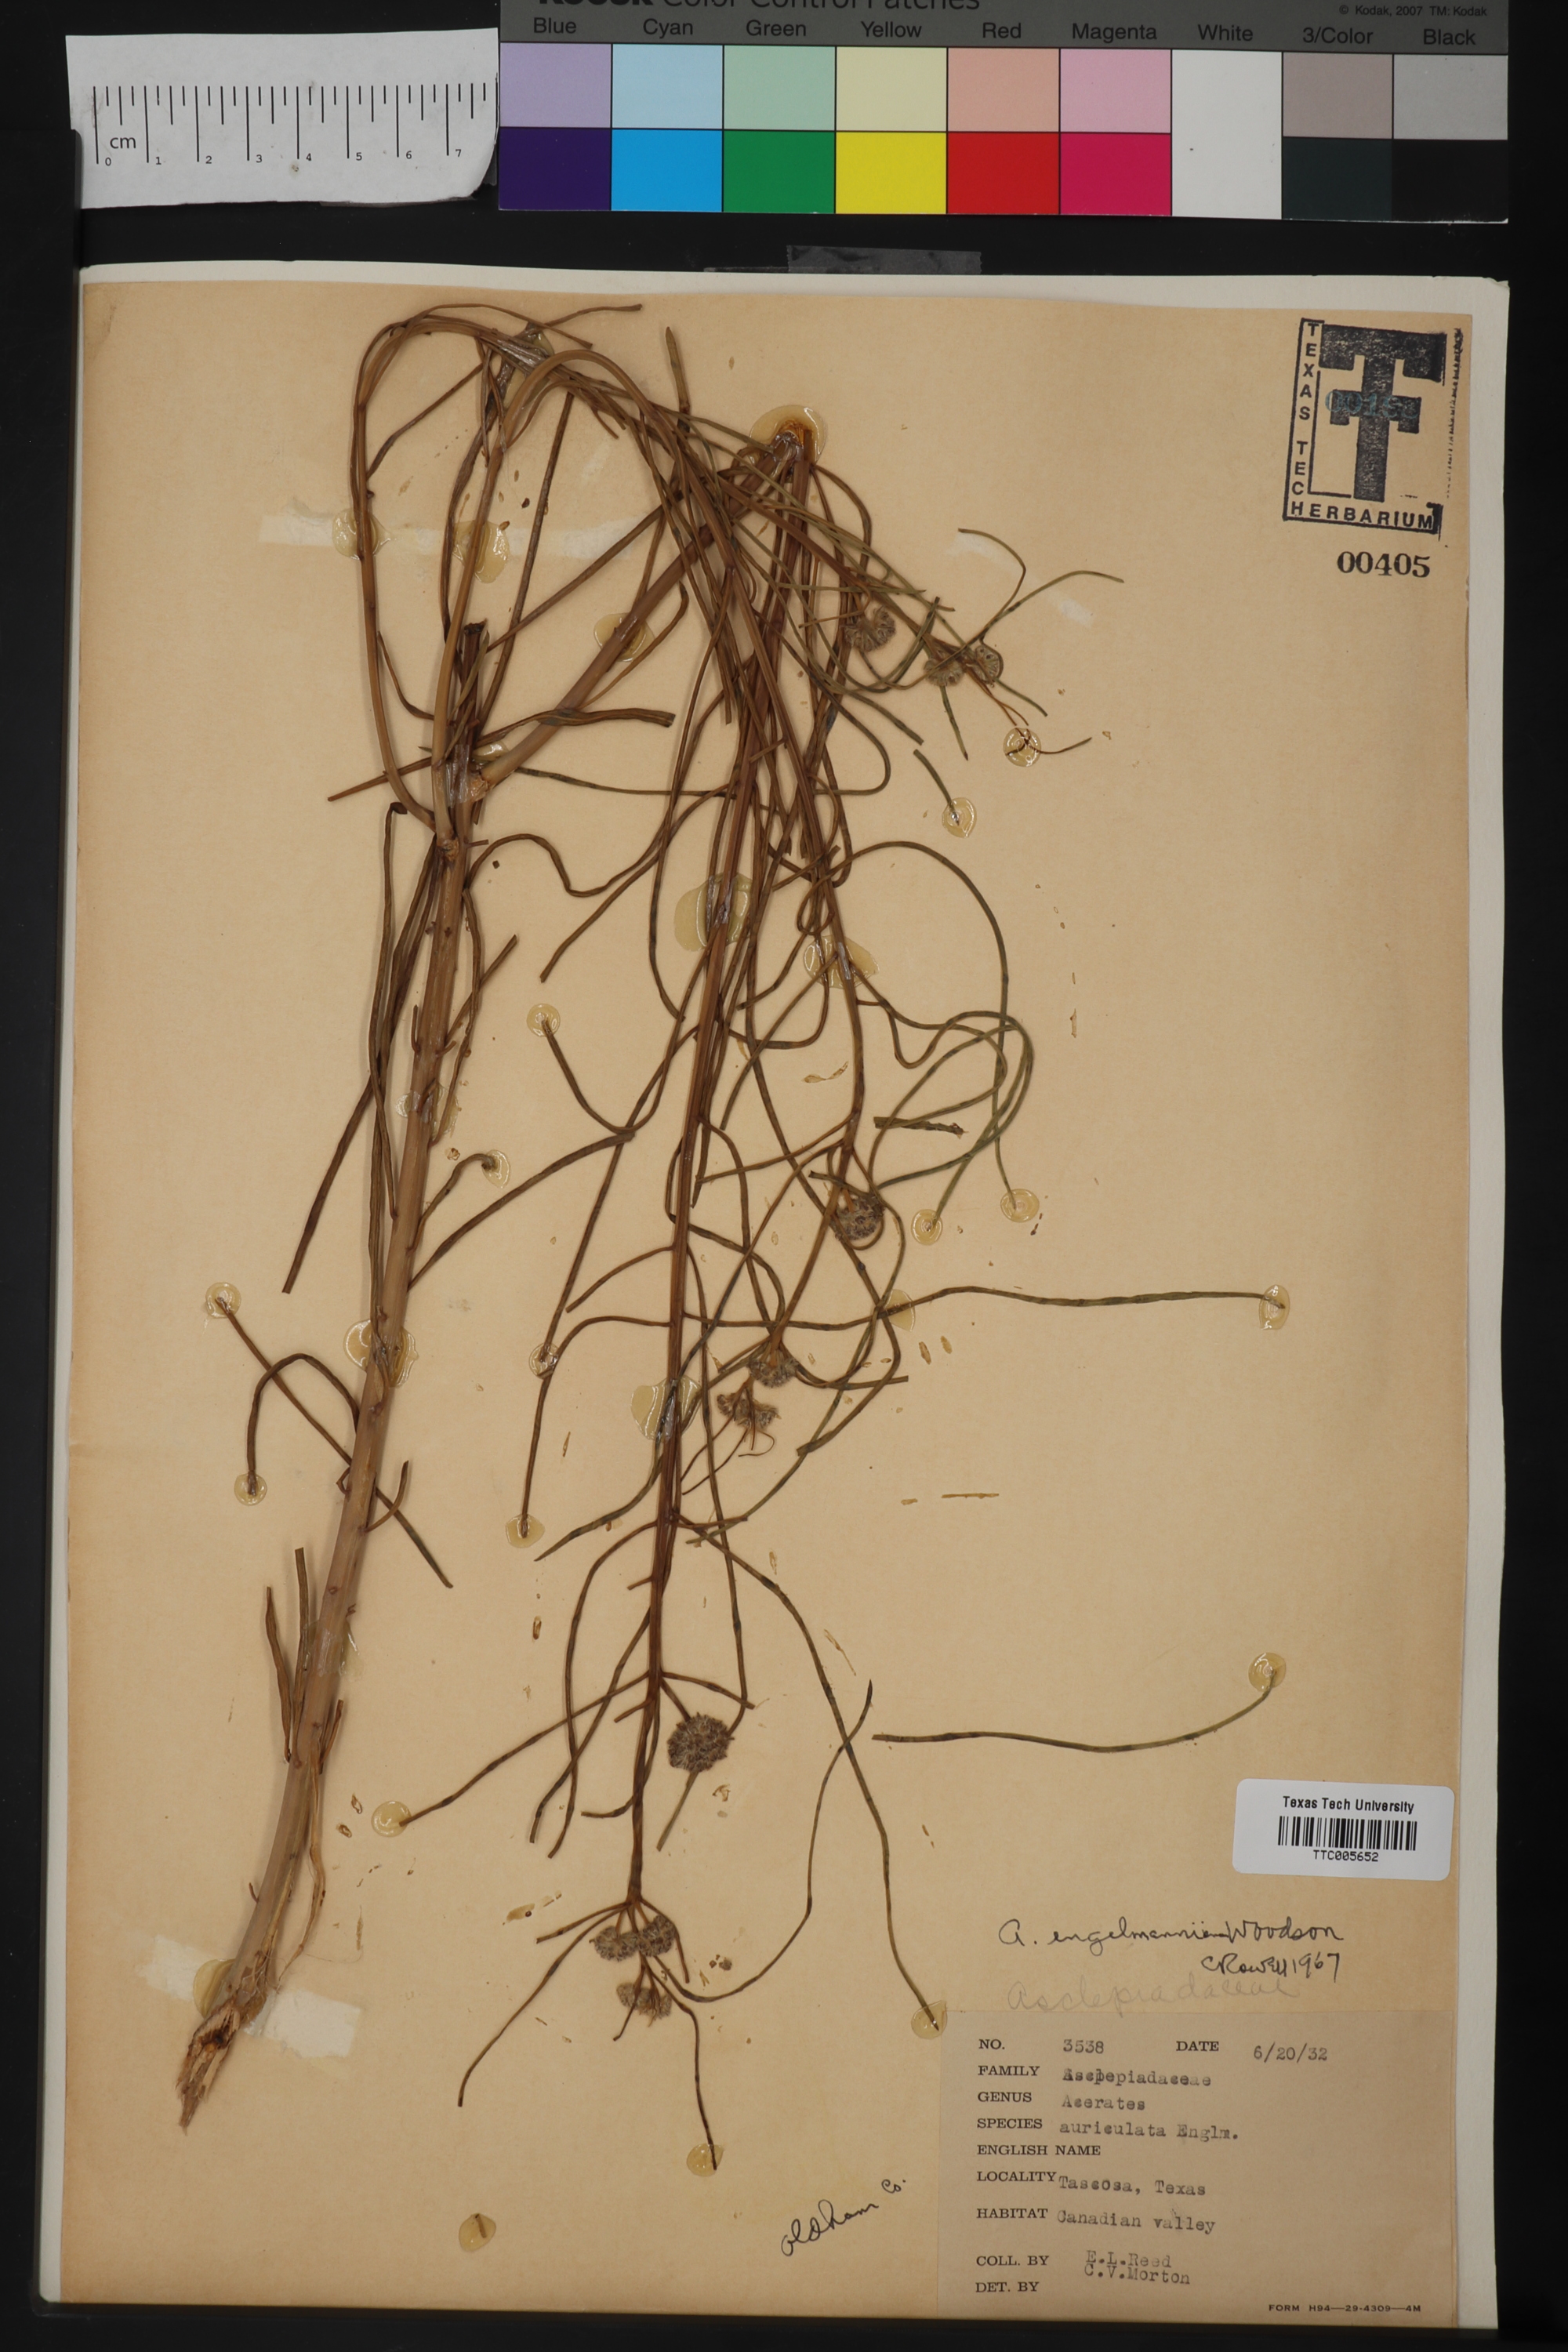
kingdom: Plantae
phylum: Tracheophyta
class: Magnoliopsida
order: Gentianales
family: Apocynaceae
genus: Asclepias
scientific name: Asclepias Acerates engelmanniana
